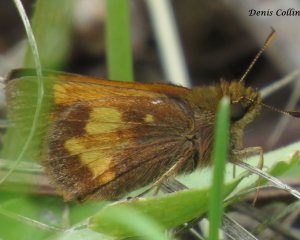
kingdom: Animalia
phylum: Arthropoda
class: Insecta
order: Lepidoptera
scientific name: Lepidoptera
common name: Butterflies
